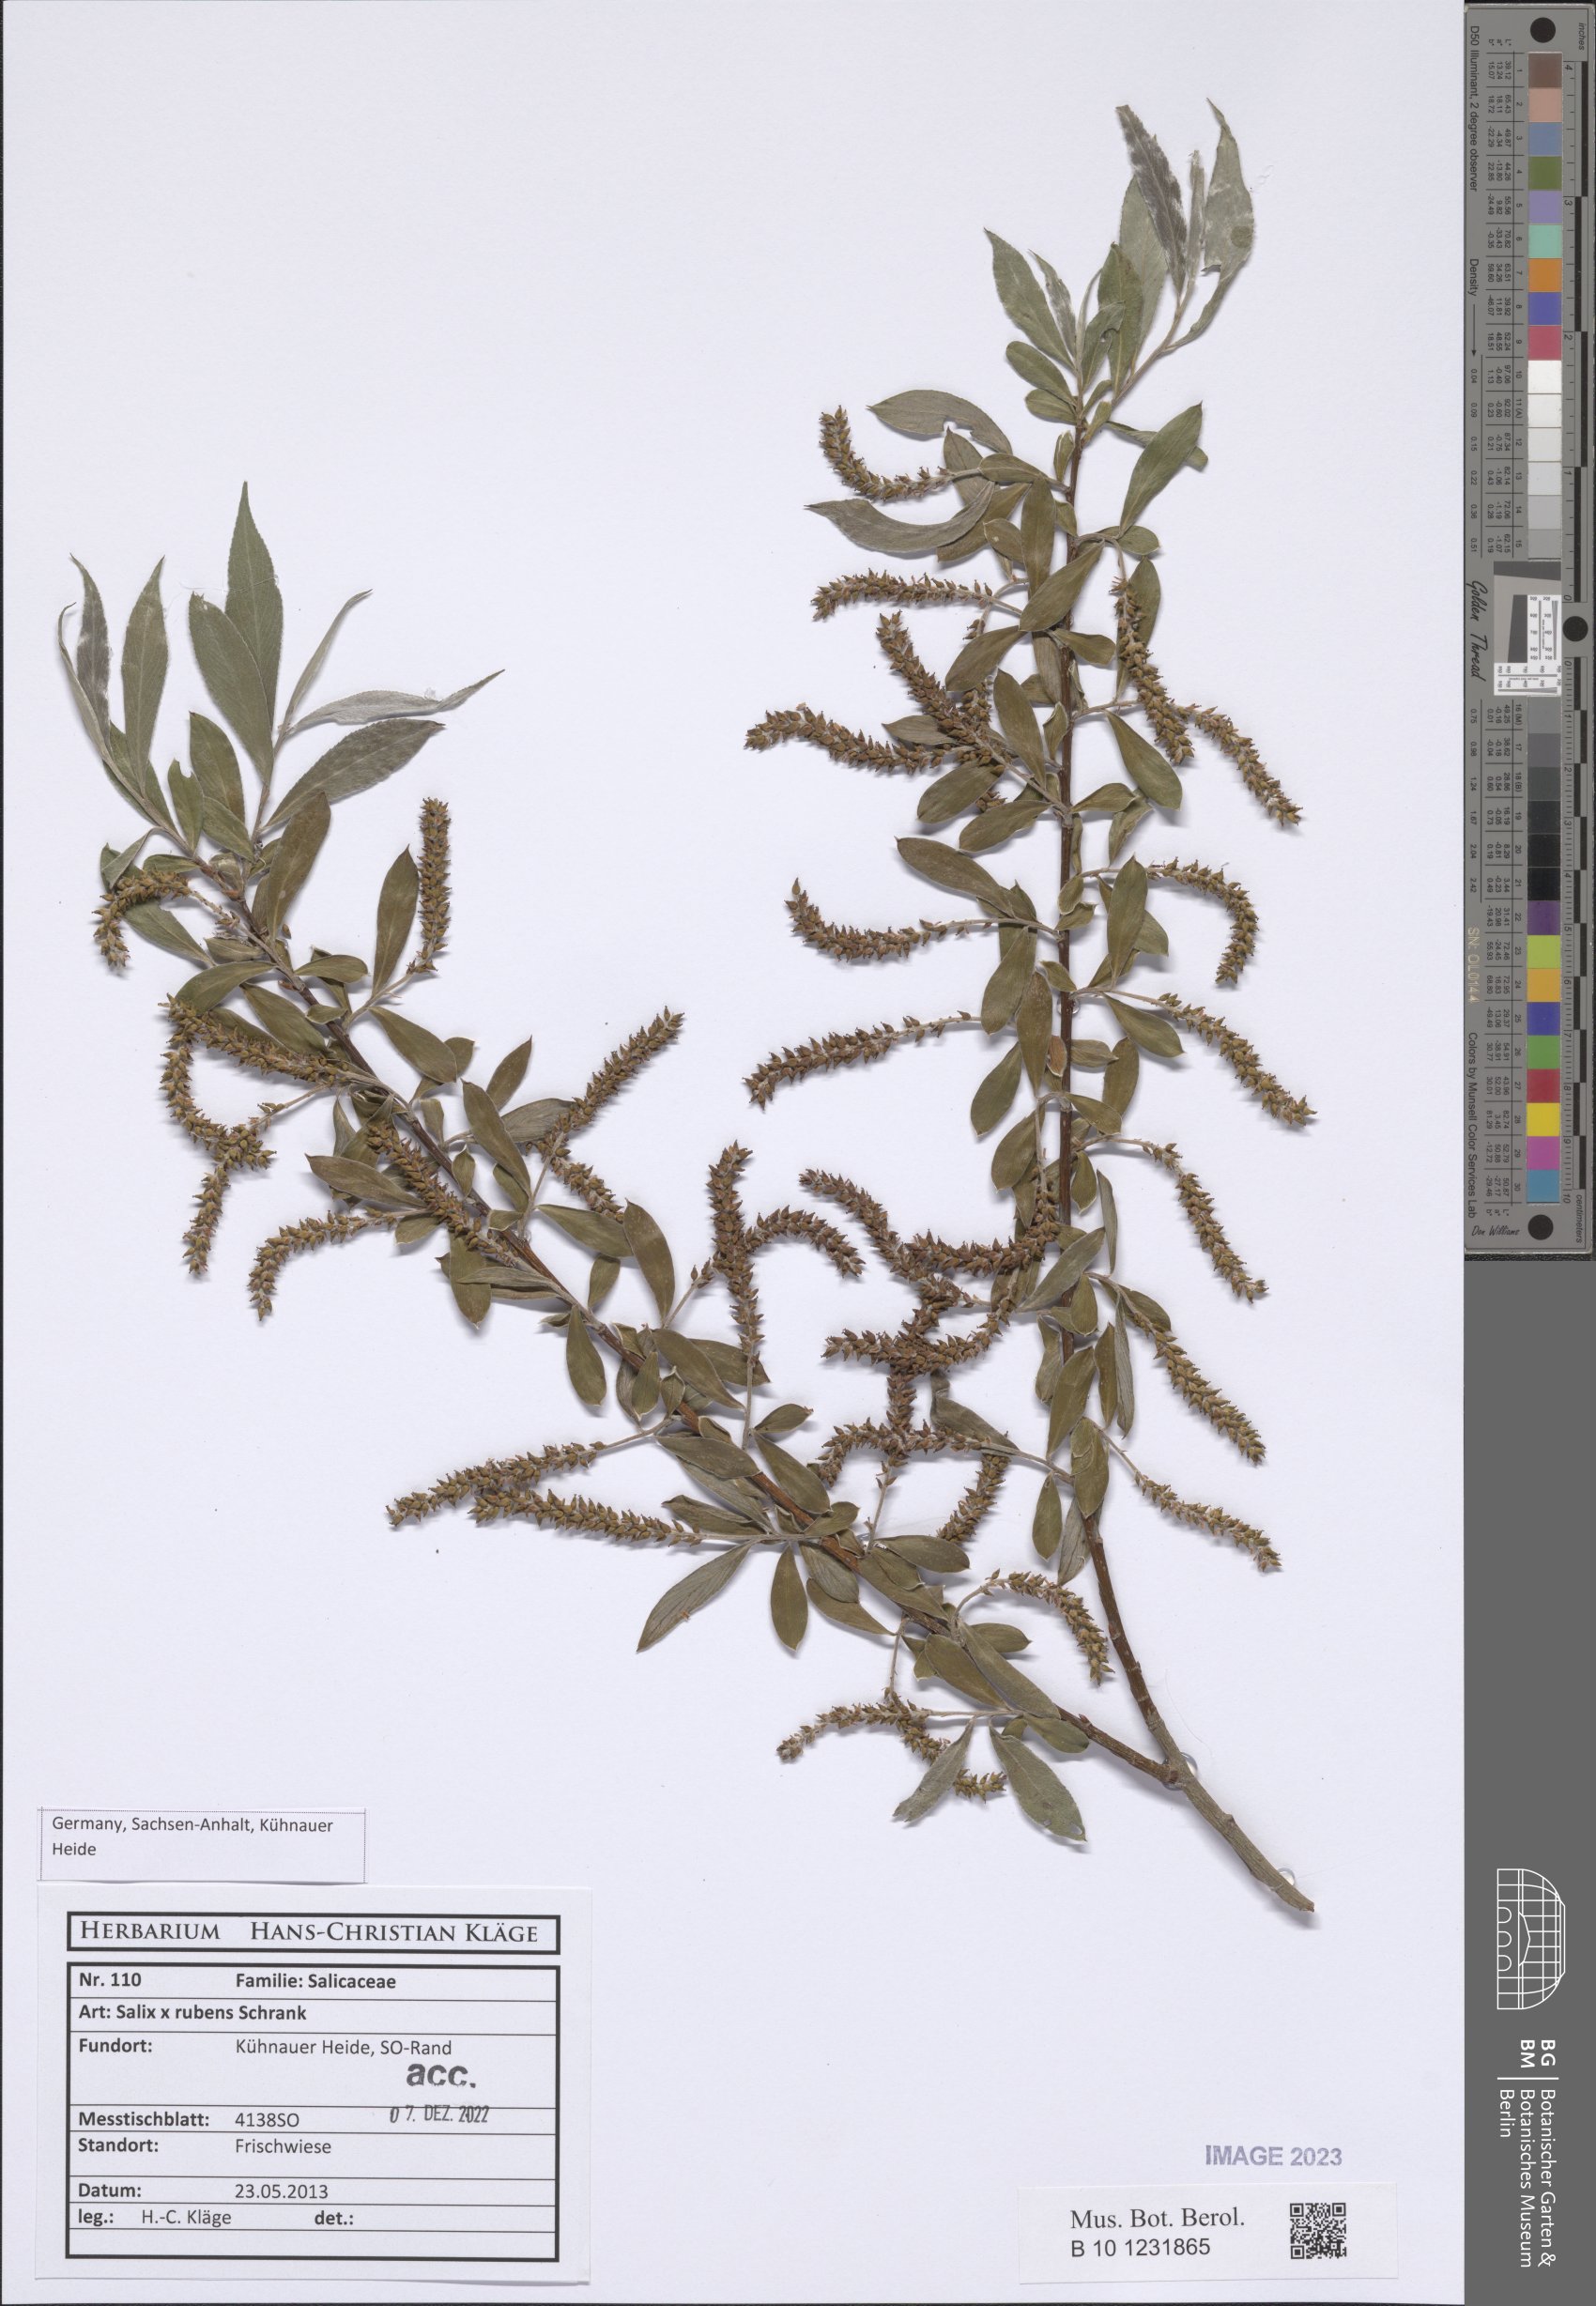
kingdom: Plantae
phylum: Tracheophyta
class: Magnoliopsida
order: Malpighiales
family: Salicaceae
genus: Salix
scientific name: Salix rubens
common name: Hybrid crack willow
